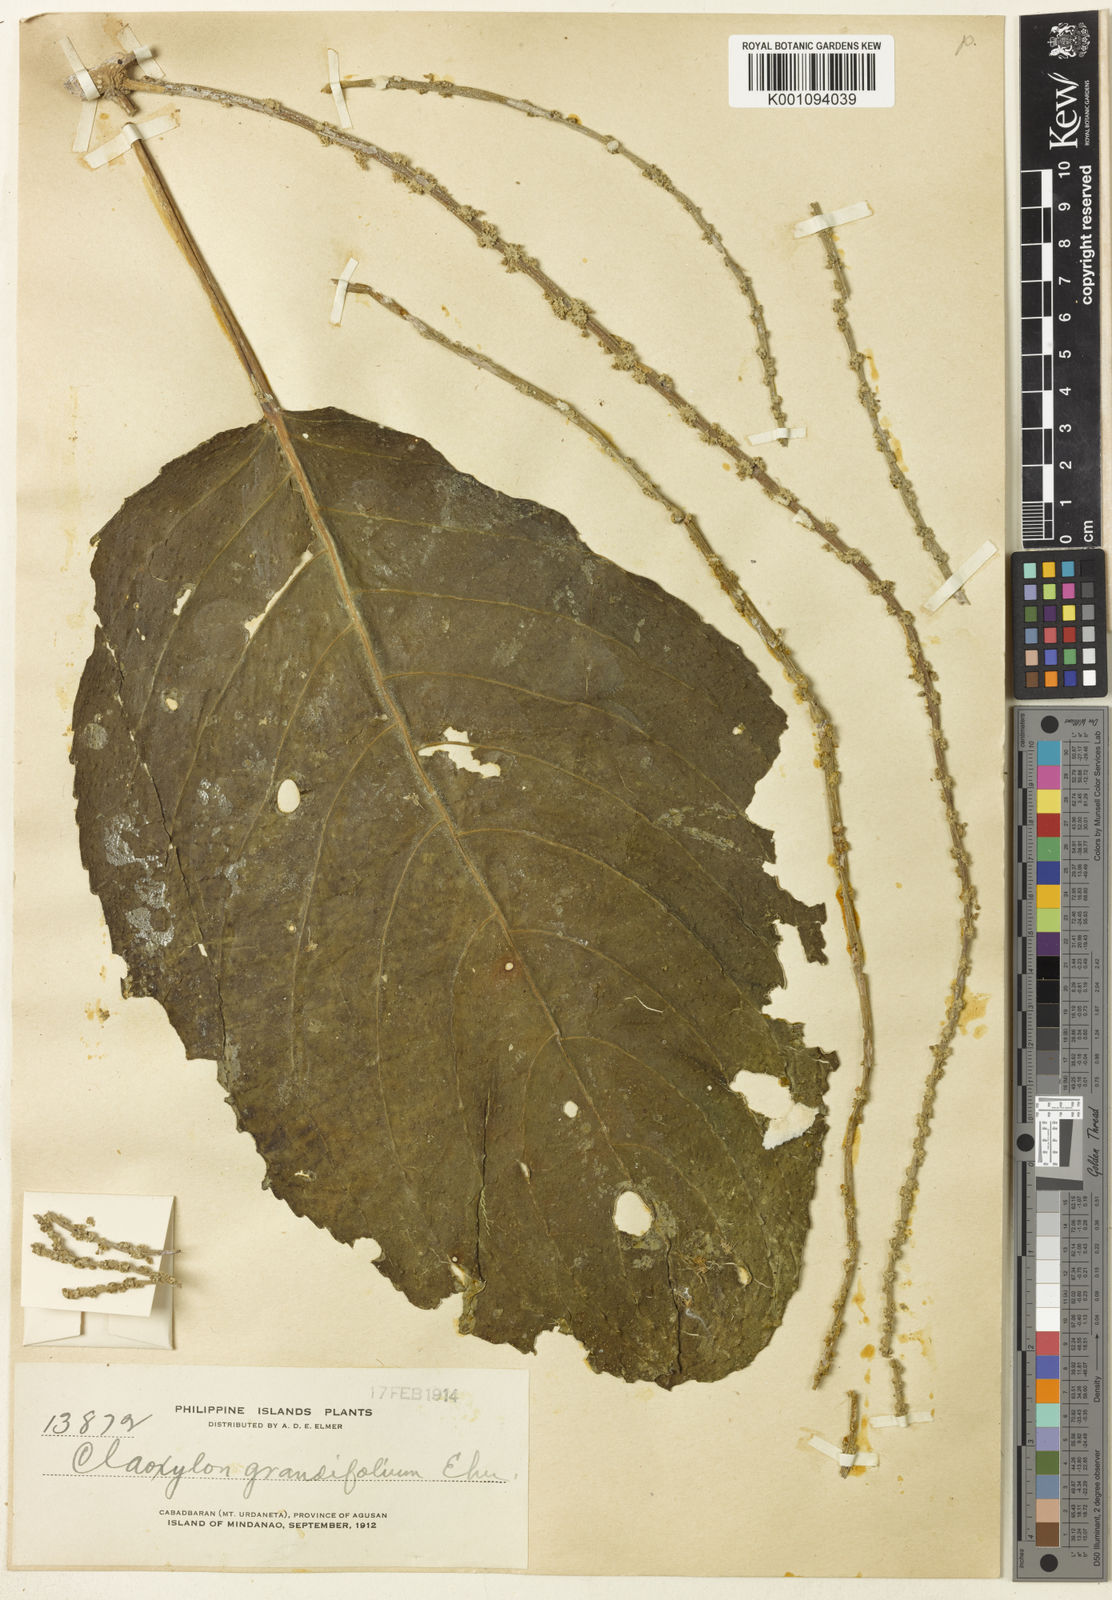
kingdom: Plantae
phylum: Tracheophyta
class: Magnoliopsida
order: Malpighiales
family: Euphorbiaceae
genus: Claoxylon
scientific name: Claoxylon arboreum
